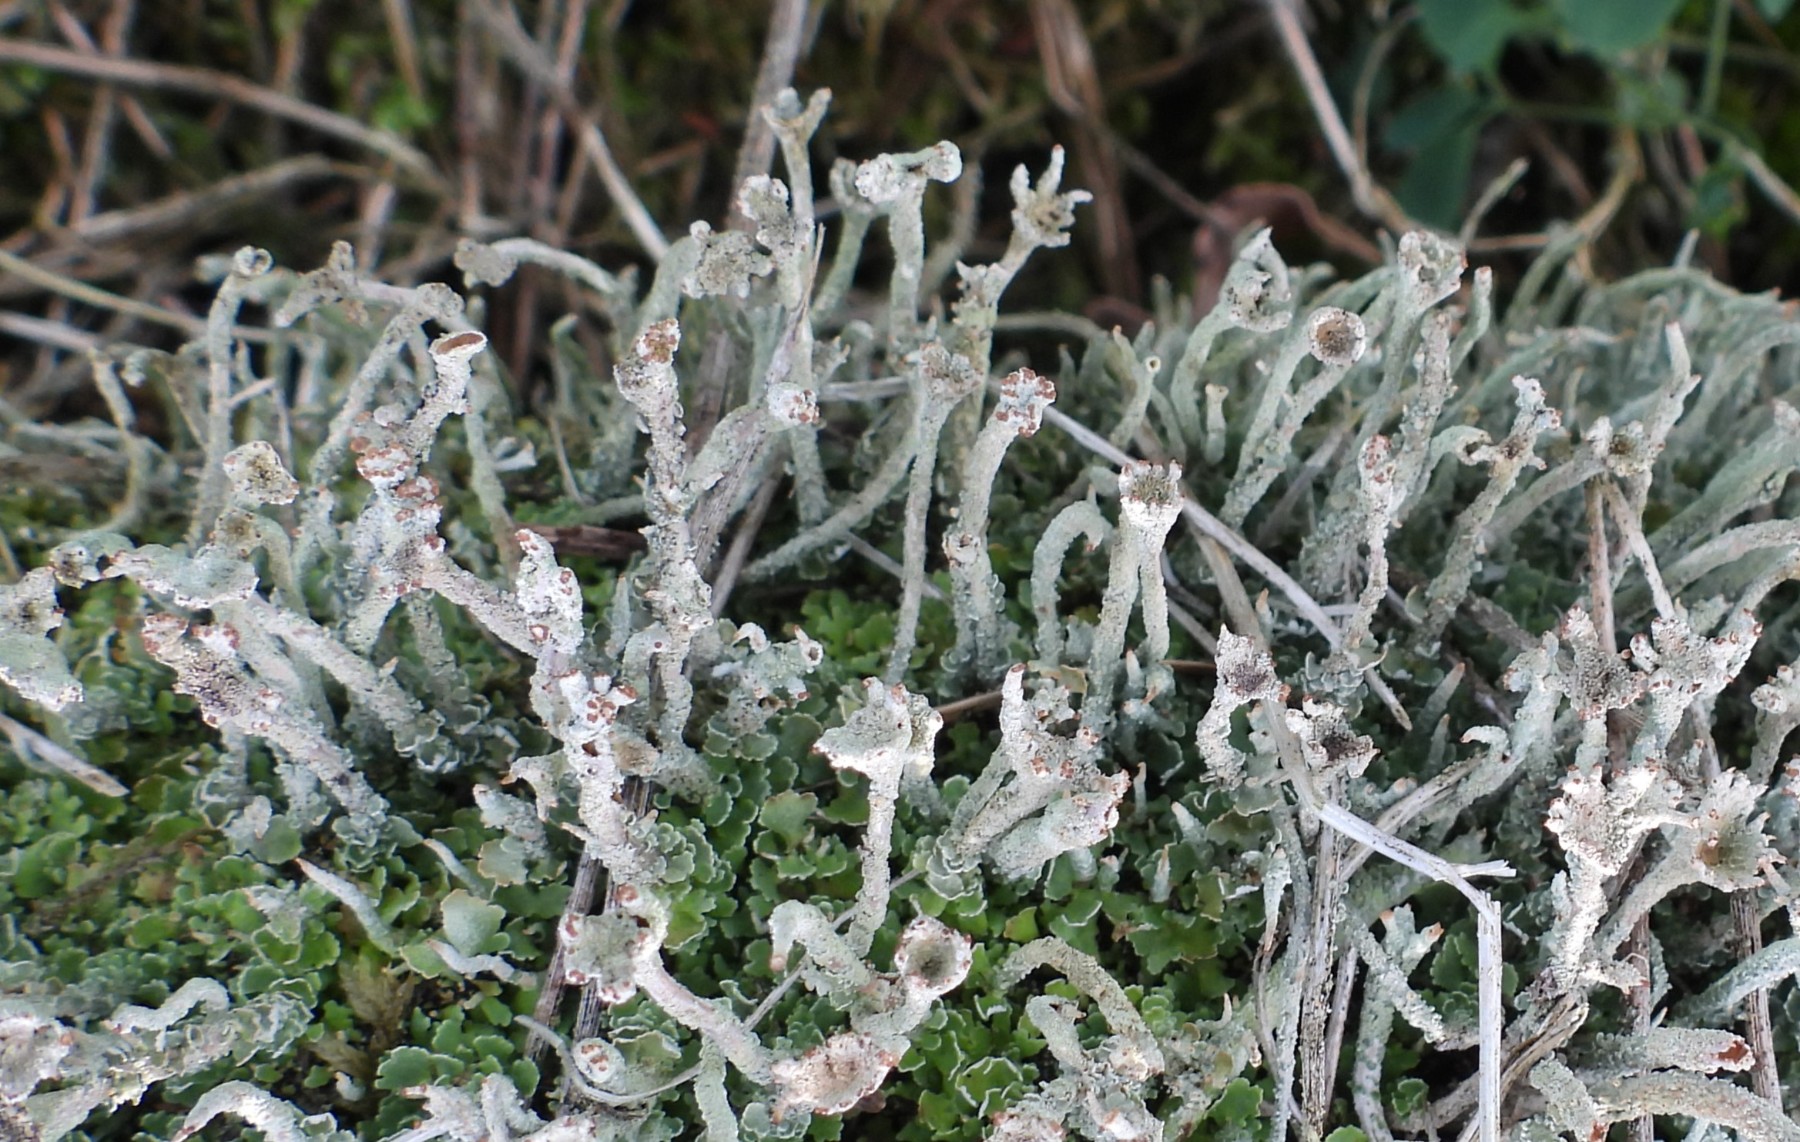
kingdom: Fungi
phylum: Ascomycota
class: Lecanoromycetes
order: Lecanorales
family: Cladoniaceae
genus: Cladonia
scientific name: Cladonia polydactyla
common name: vifte-bægerlav
